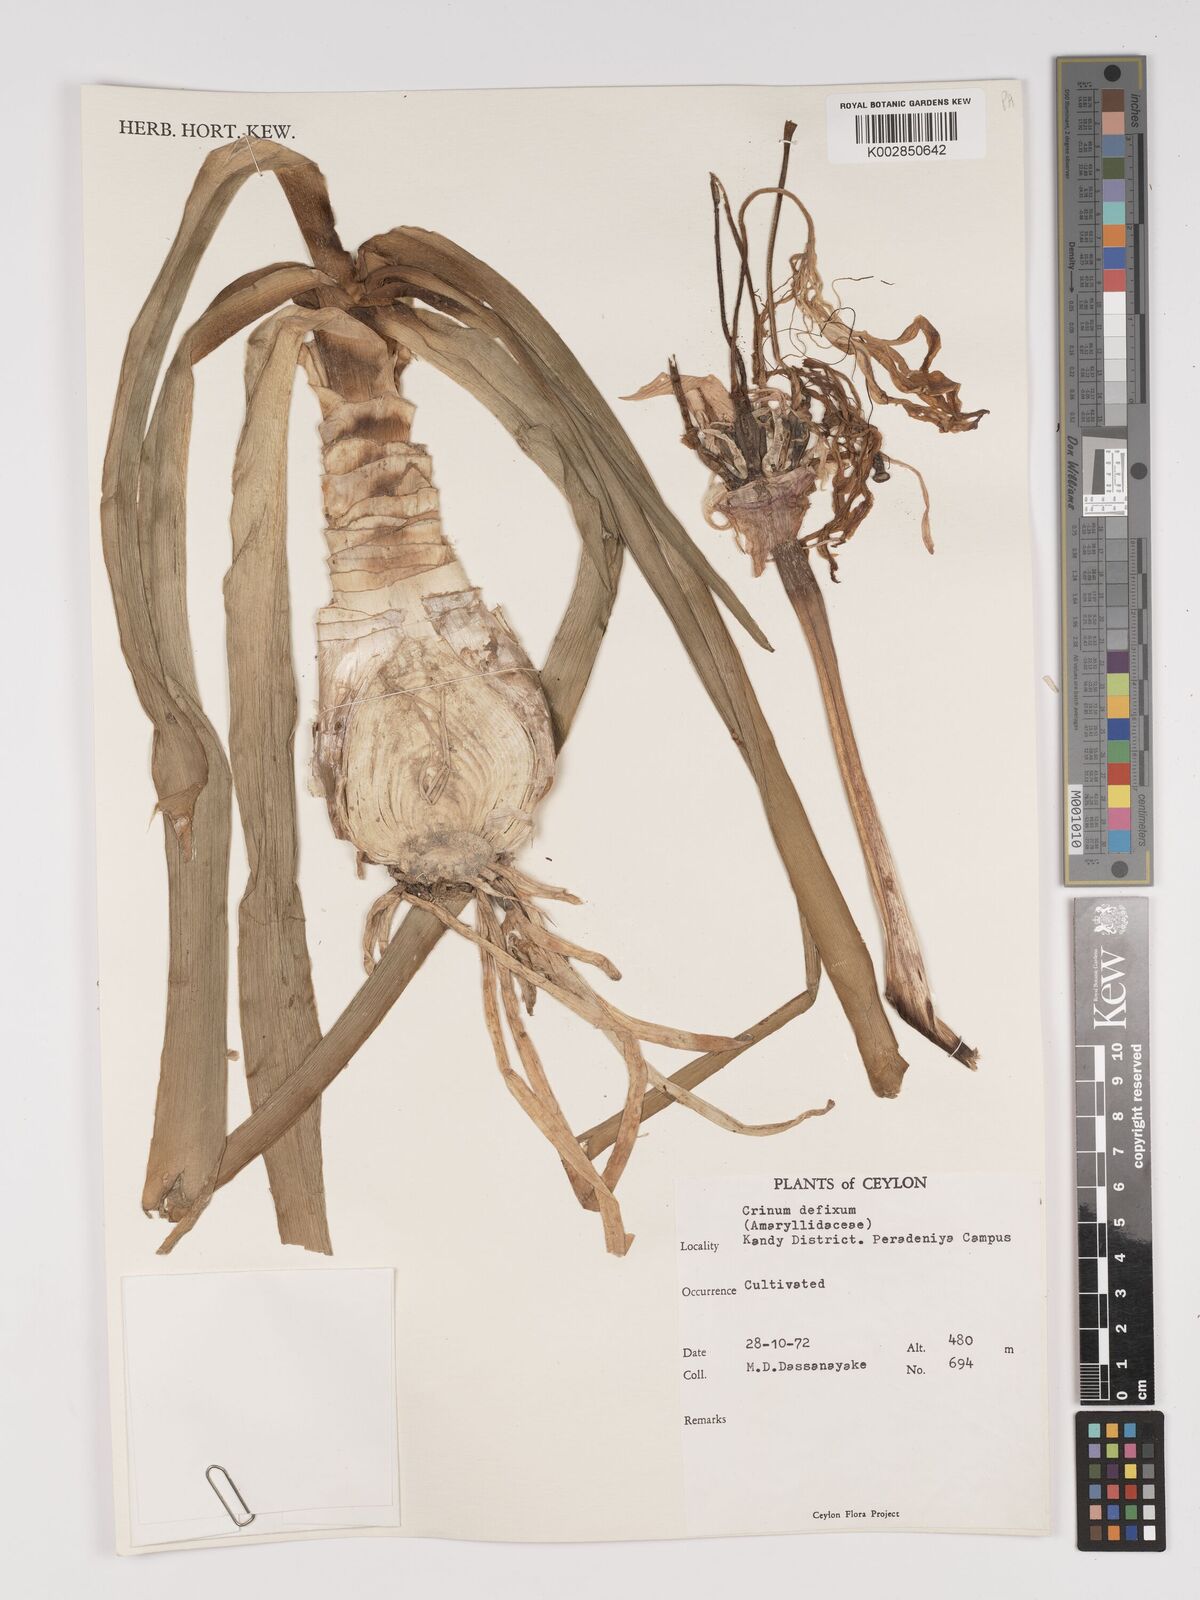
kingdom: Plantae
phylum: Tracheophyta
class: Liliopsida
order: Asparagales
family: Amaryllidaceae
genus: Crinum
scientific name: Crinum defixum
